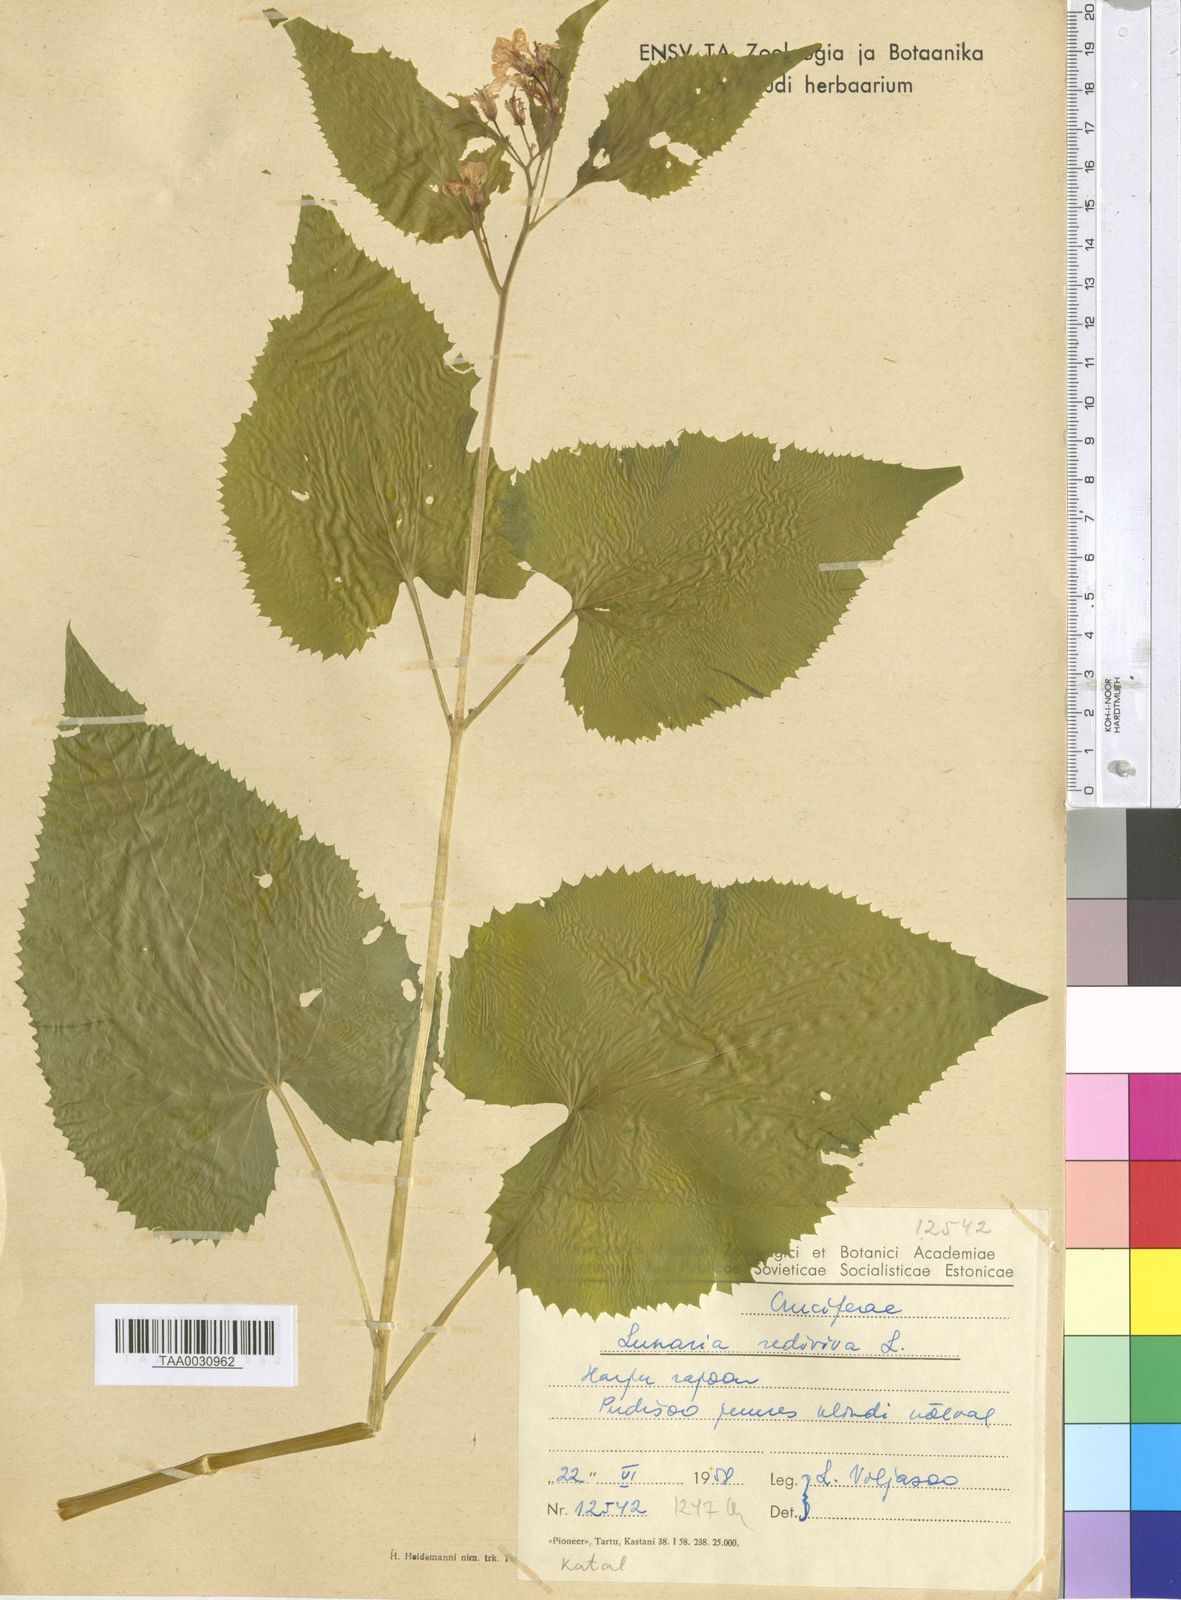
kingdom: Plantae
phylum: Tracheophyta
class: Magnoliopsida
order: Brassicales
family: Brassicaceae
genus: Lunaria
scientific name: Lunaria rediviva
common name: Perennial honesty
